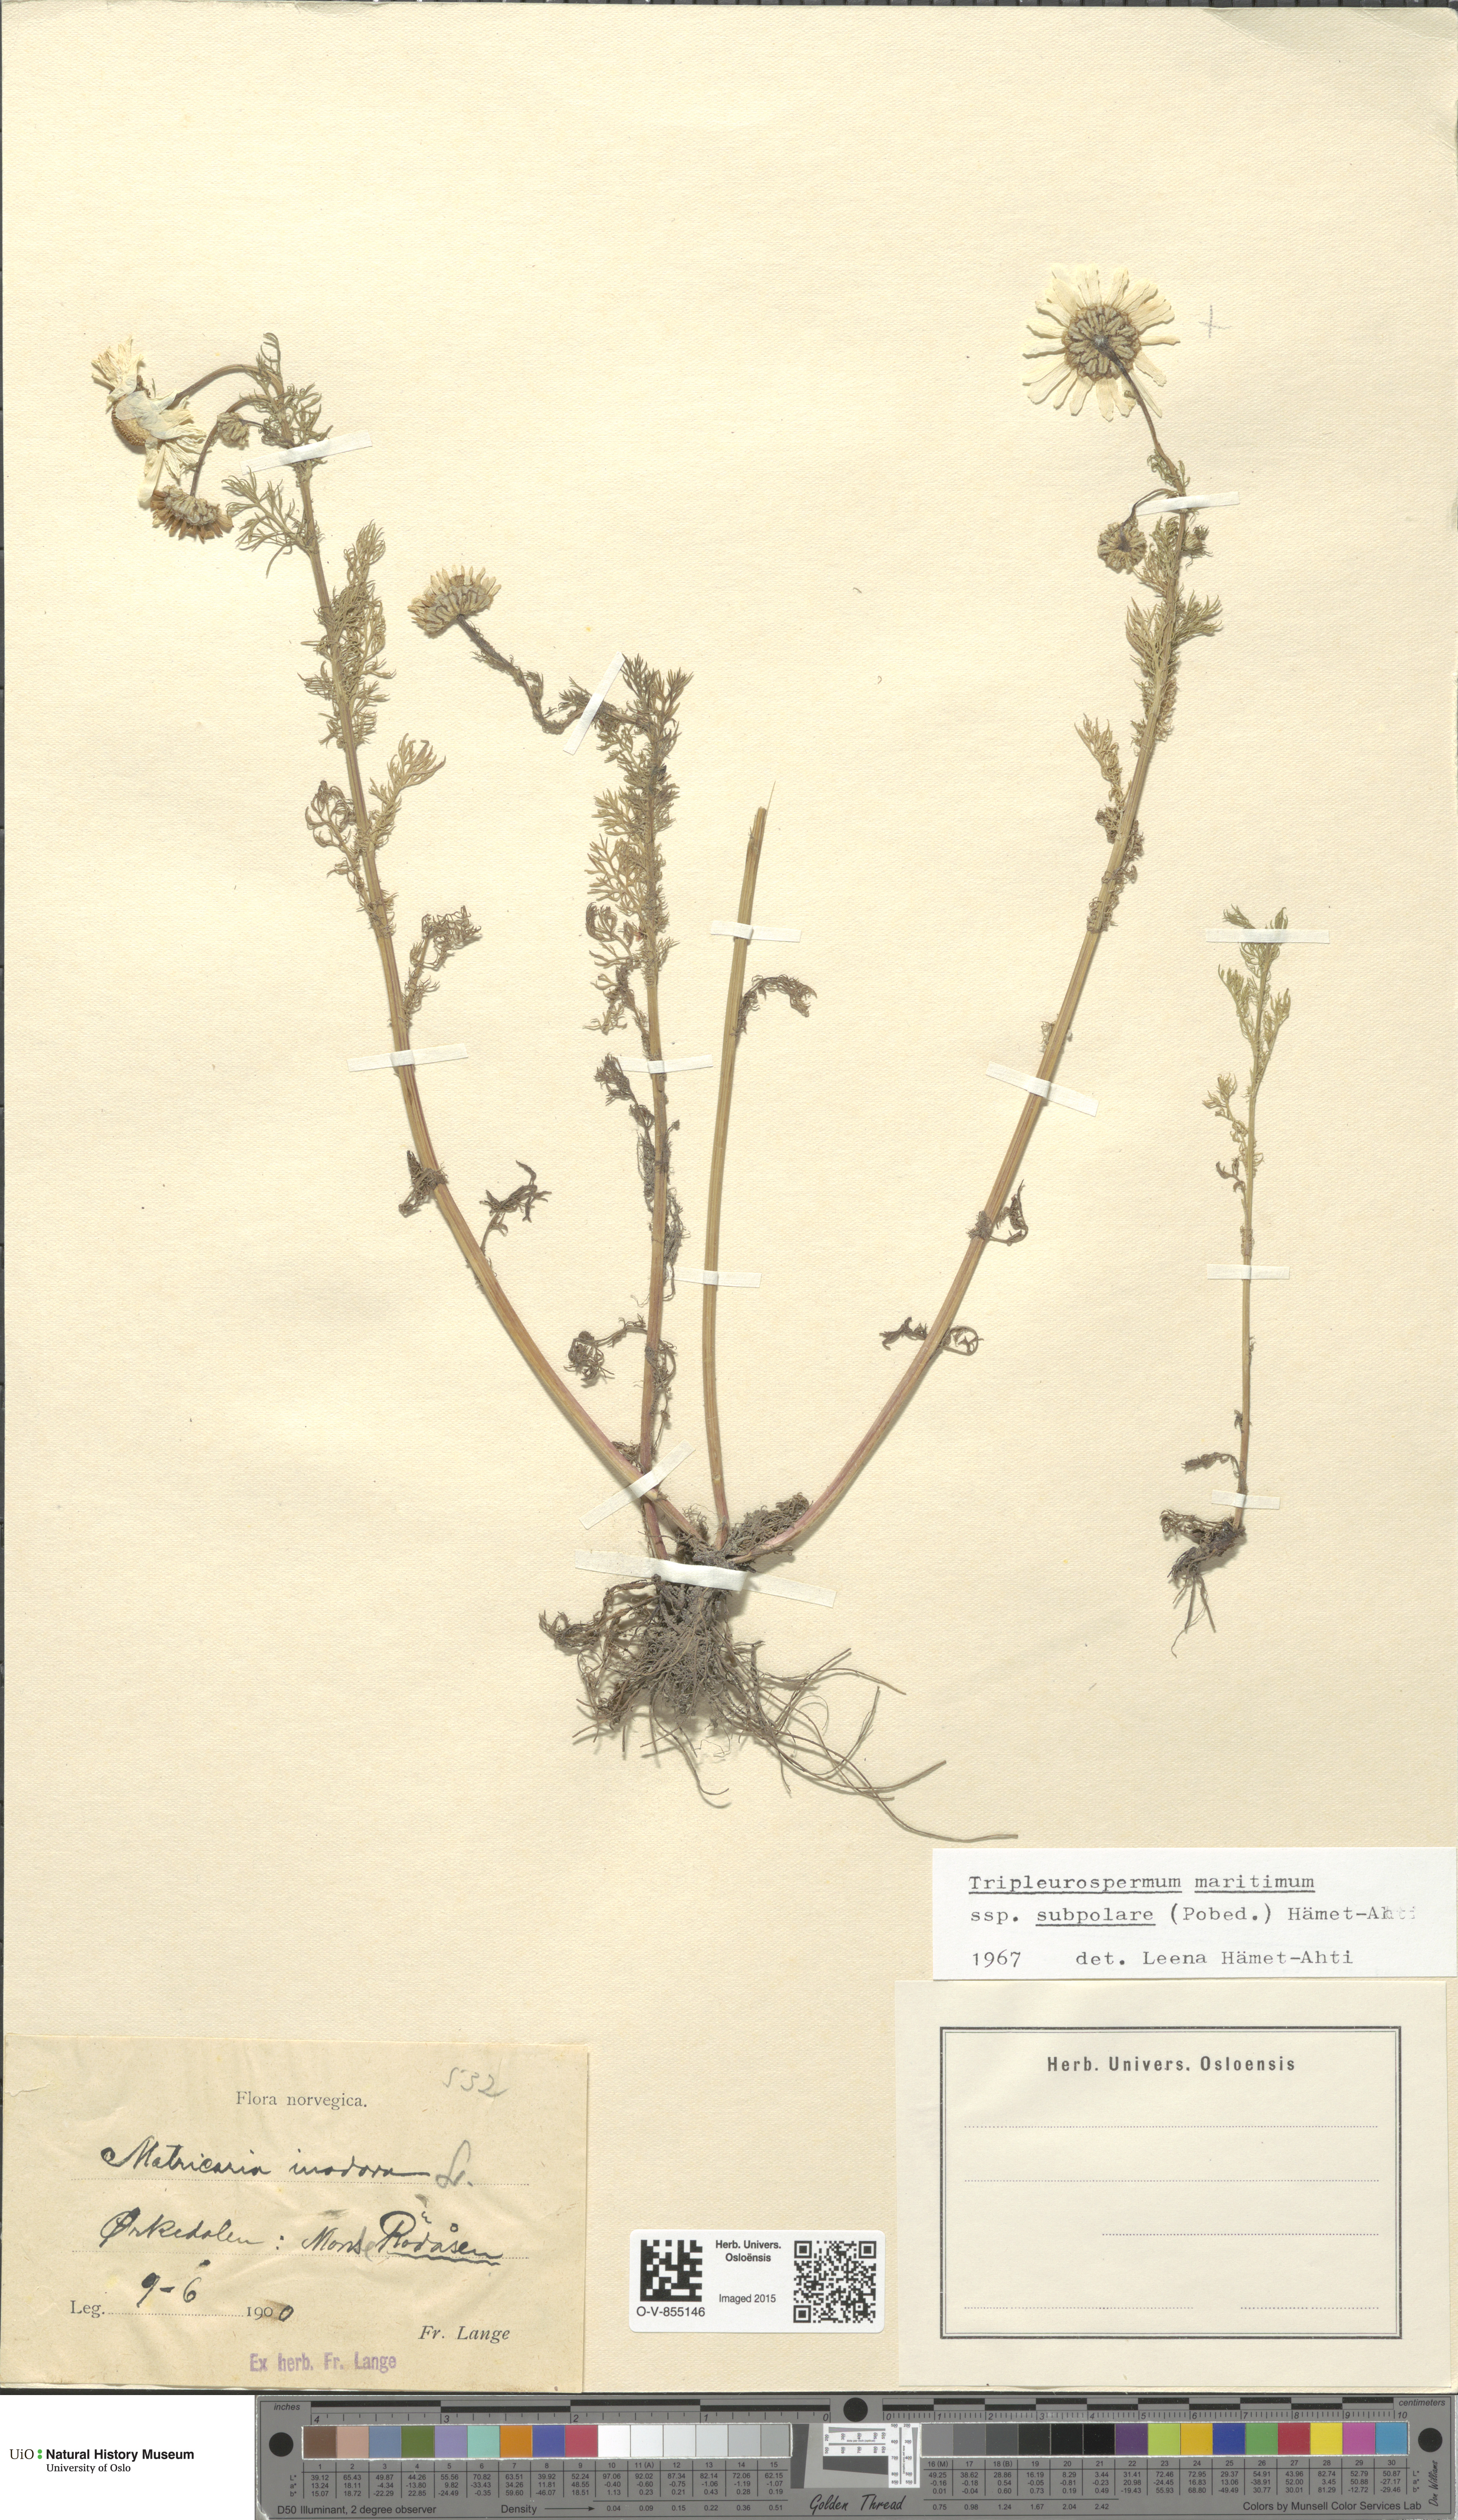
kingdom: Plantae
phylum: Tracheophyta
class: Magnoliopsida
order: Asterales
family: Asteraceae
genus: Tripleurospermum
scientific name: Tripleurospermum subpolare
